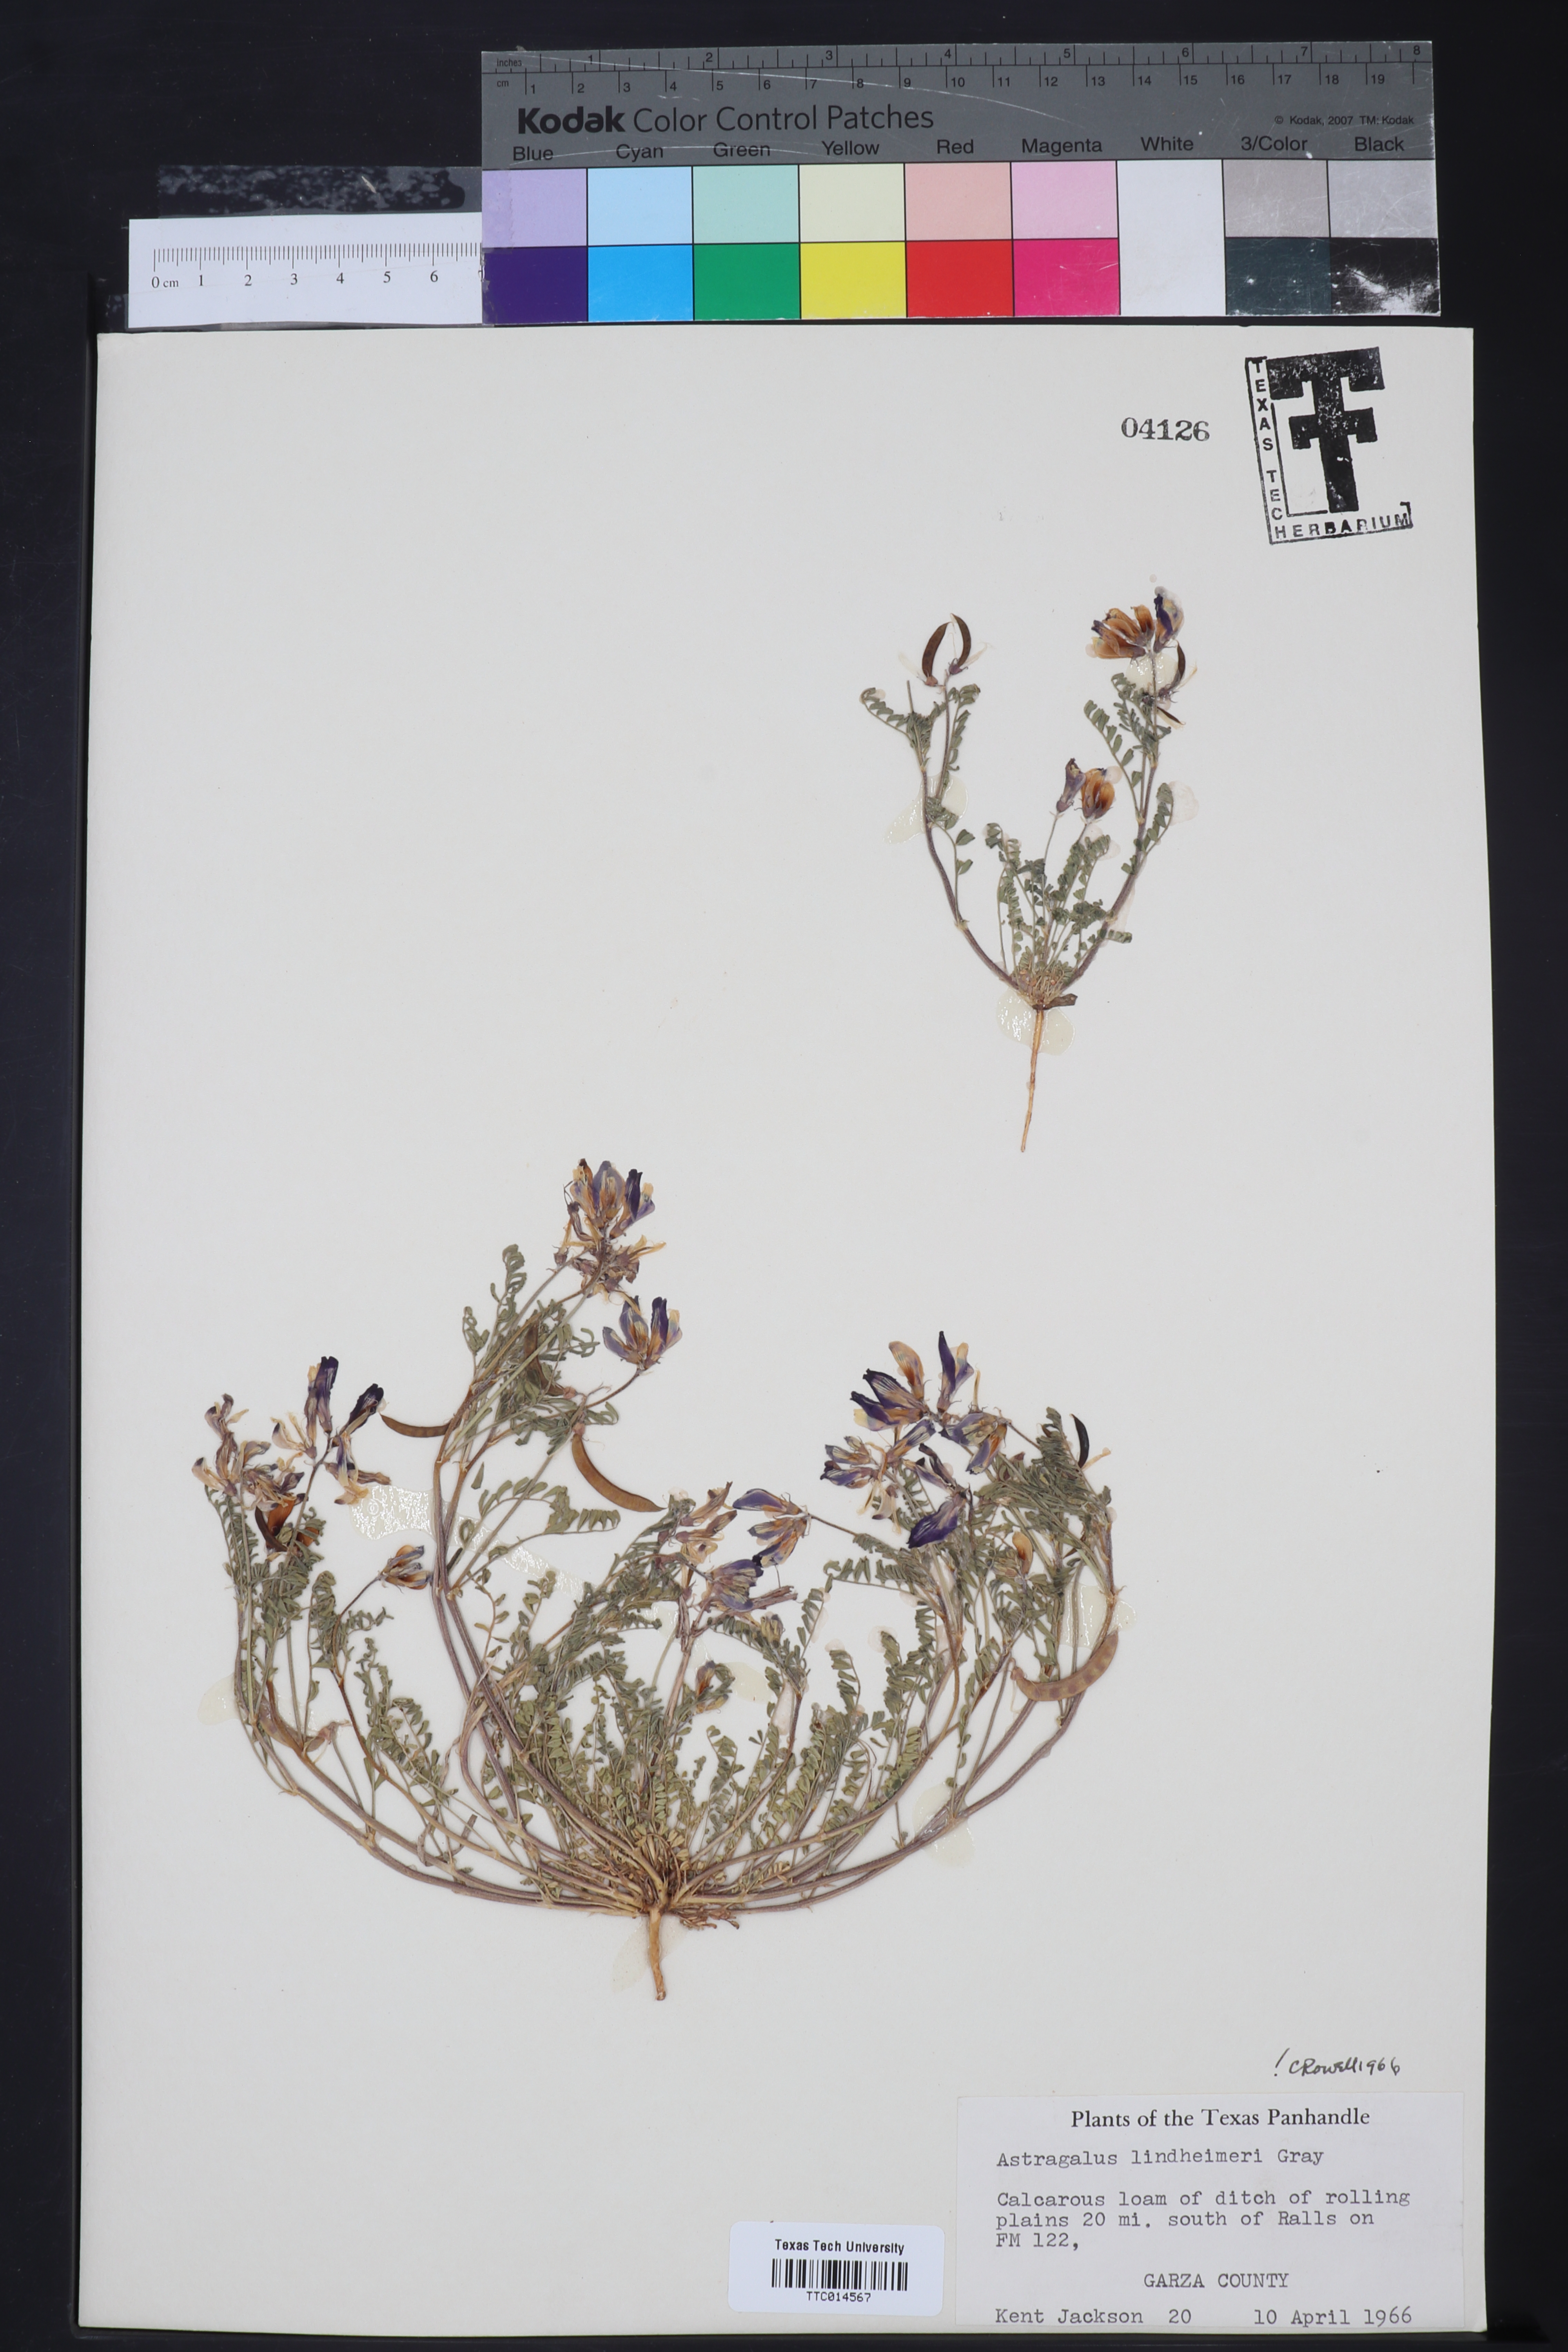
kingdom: Plantae
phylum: Tracheophyta
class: Magnoliopsida
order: Fabales
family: Fabaceae
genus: Astragalus
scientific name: Astragalus lindheimeri
